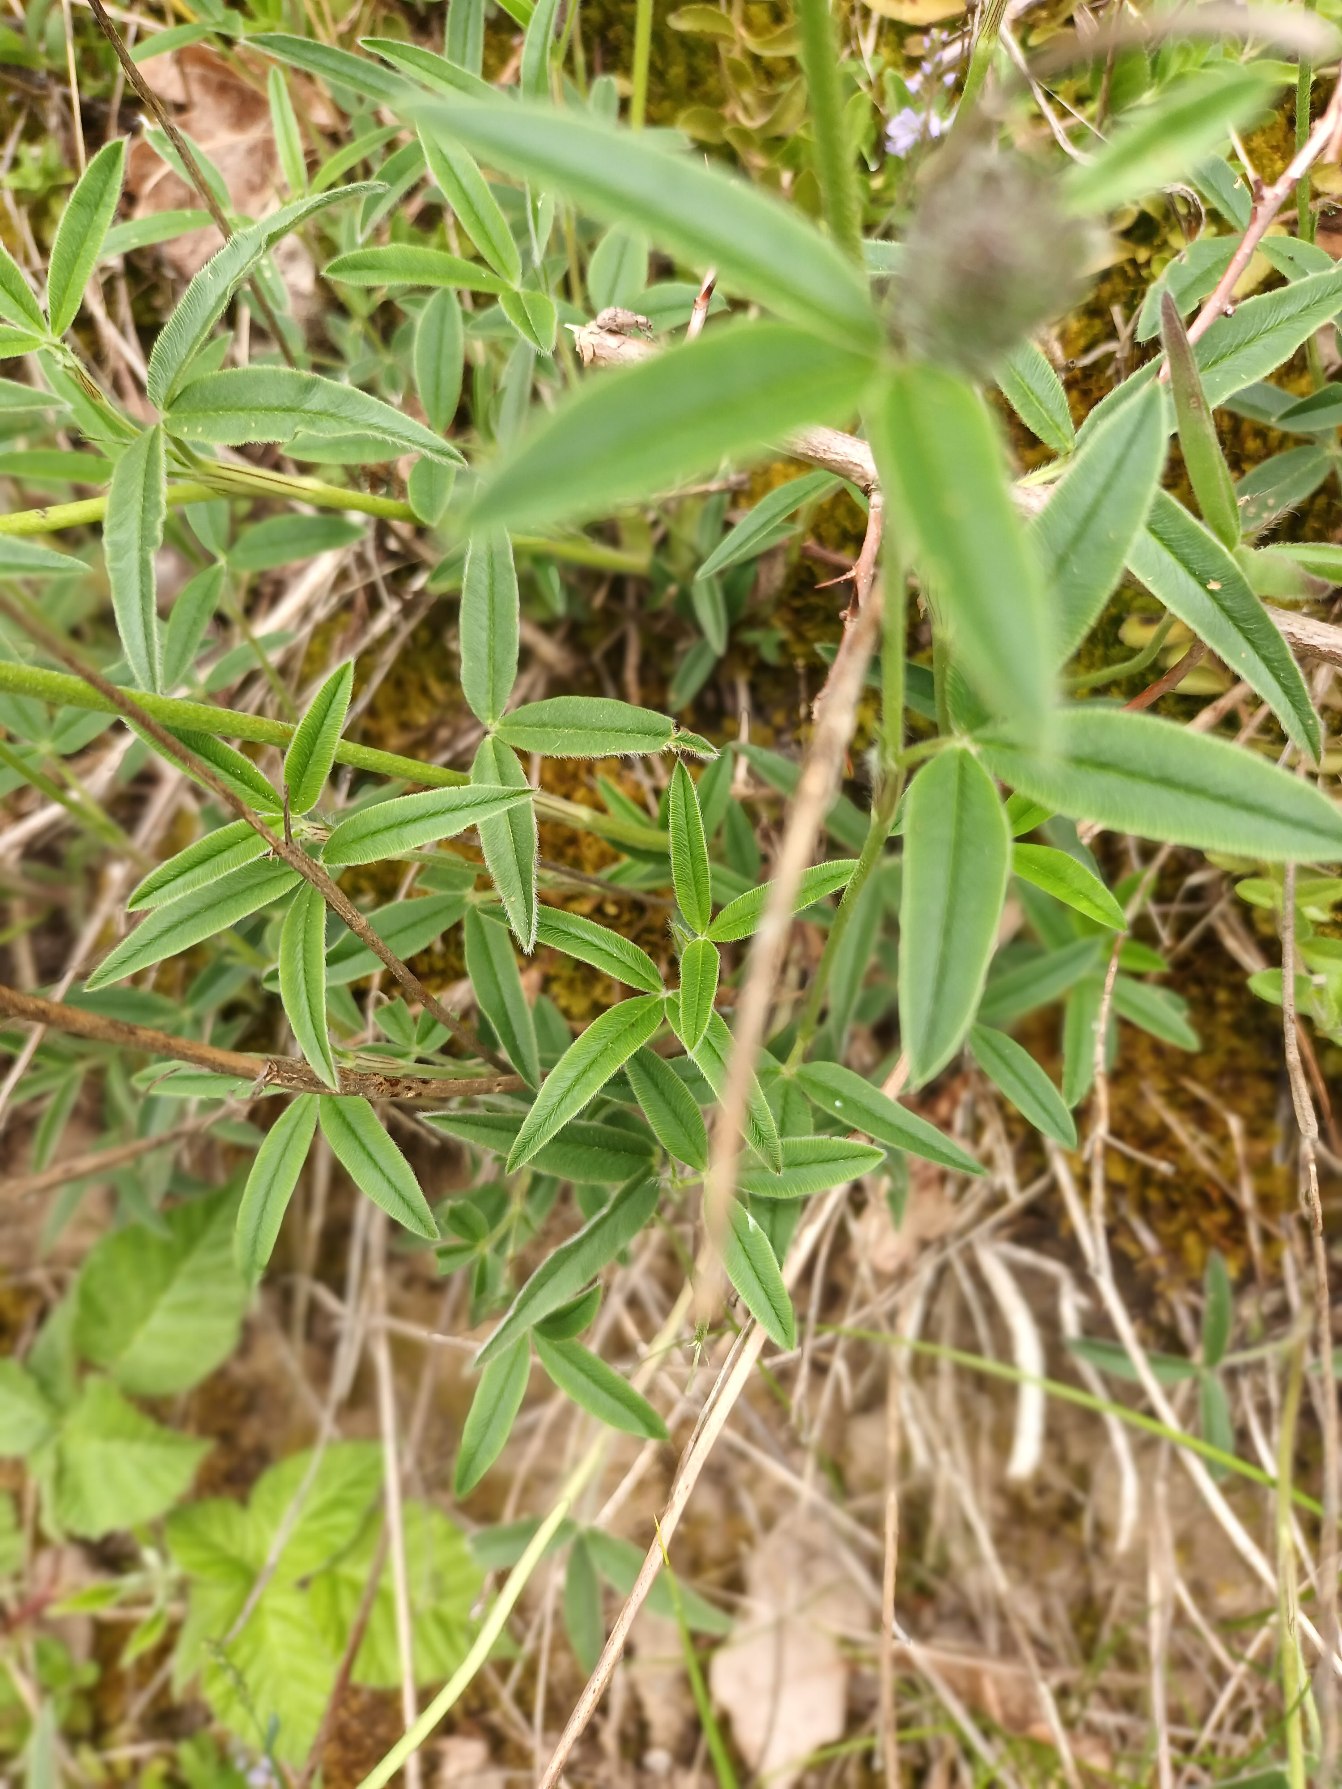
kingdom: Plantae
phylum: Tracheophyta
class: Magnoliopsida
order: Fabales
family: Fabaceae
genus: Trifolium
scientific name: Trifolium alpestre
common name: Skov-kløver
